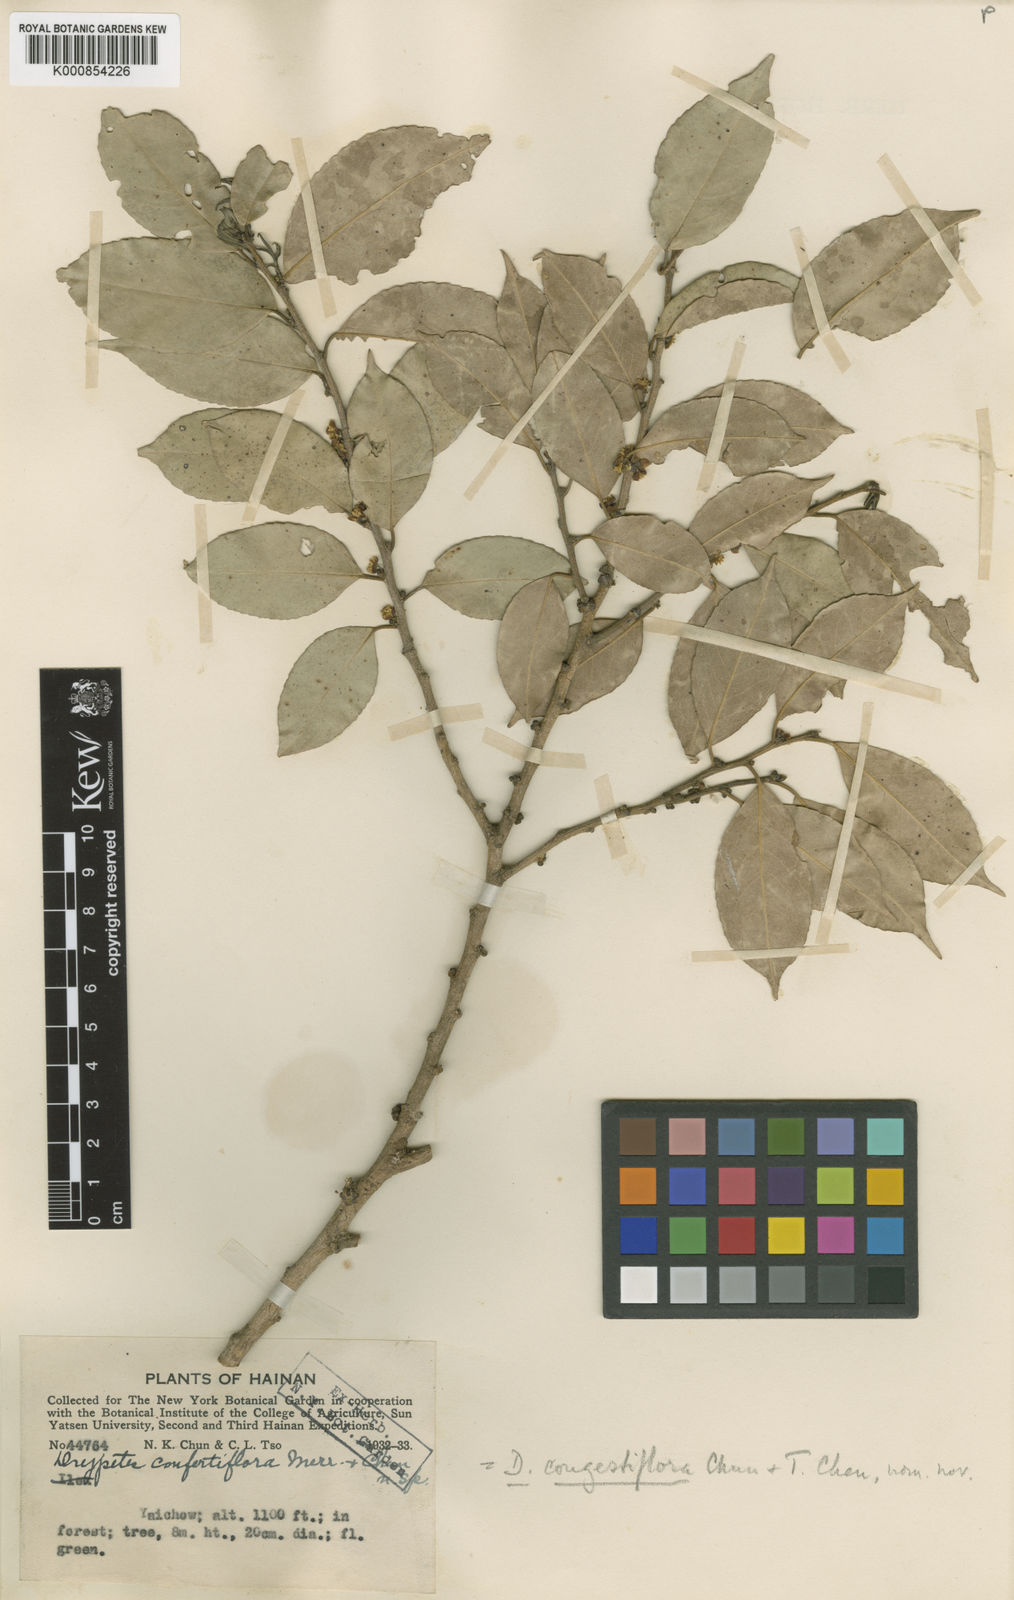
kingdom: Plantae
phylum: Tracheophyta
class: Magnoliopsida
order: Malpighiales
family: Putranjivaceae
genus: Drypetes
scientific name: Drypetes congestiflora
